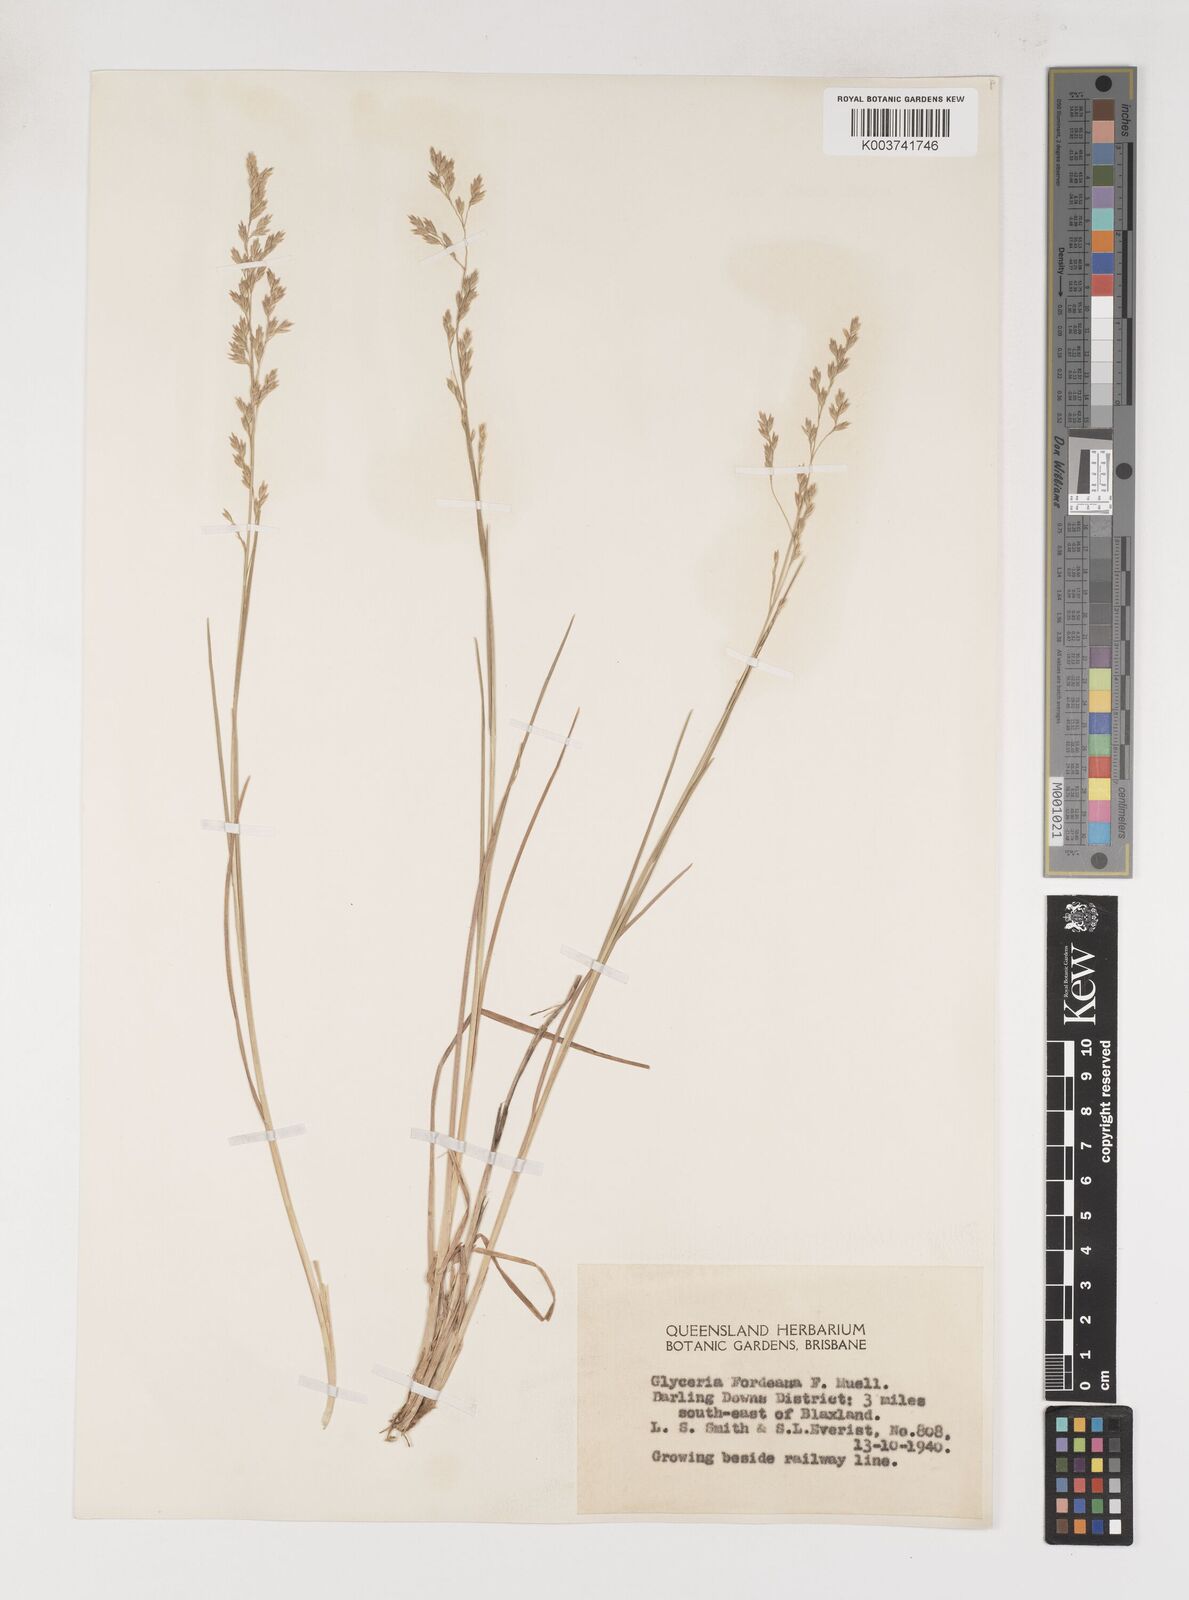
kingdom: Plantae
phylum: Tracheophyta
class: Liliopsida
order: Poales
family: Poaceae
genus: Poa
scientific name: Poa fordeana
